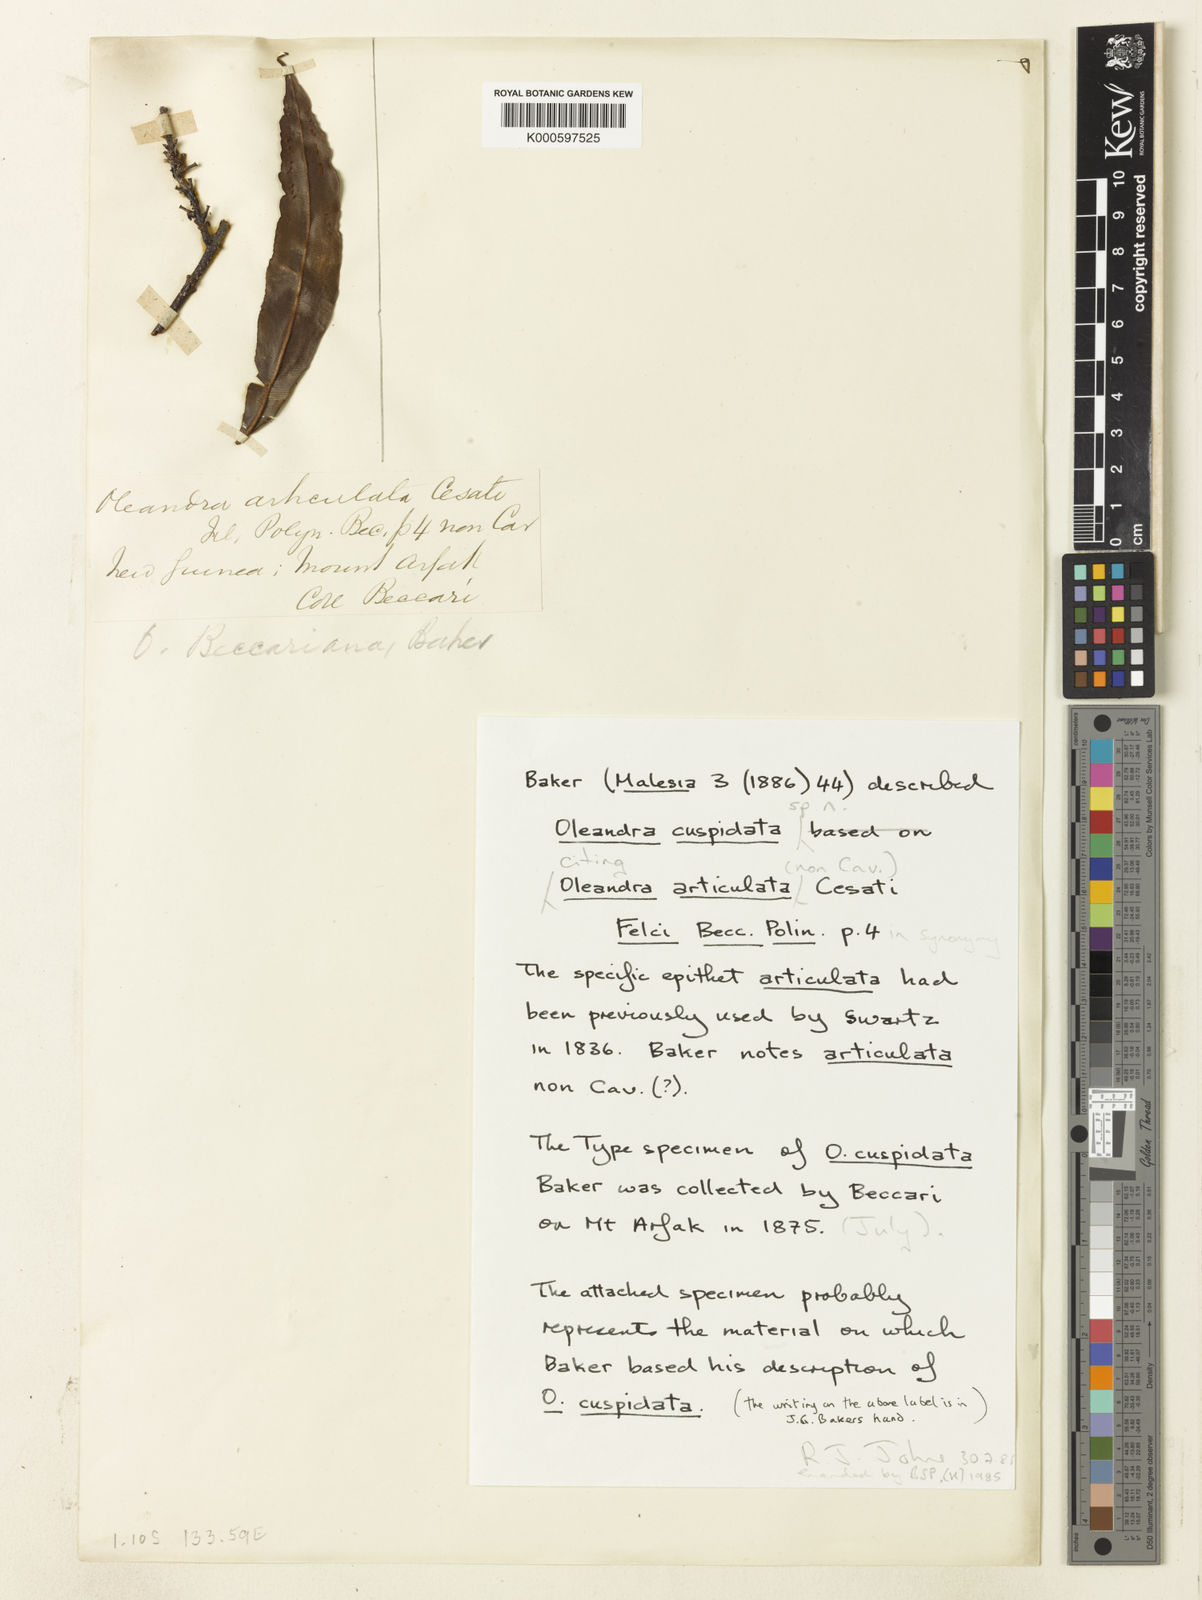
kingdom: Plantae
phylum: Tracheophyta
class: Polypodiopsida
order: Polypodiales
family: Oleandraceae
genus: Oleandra
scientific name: Oleandra neriiformis
